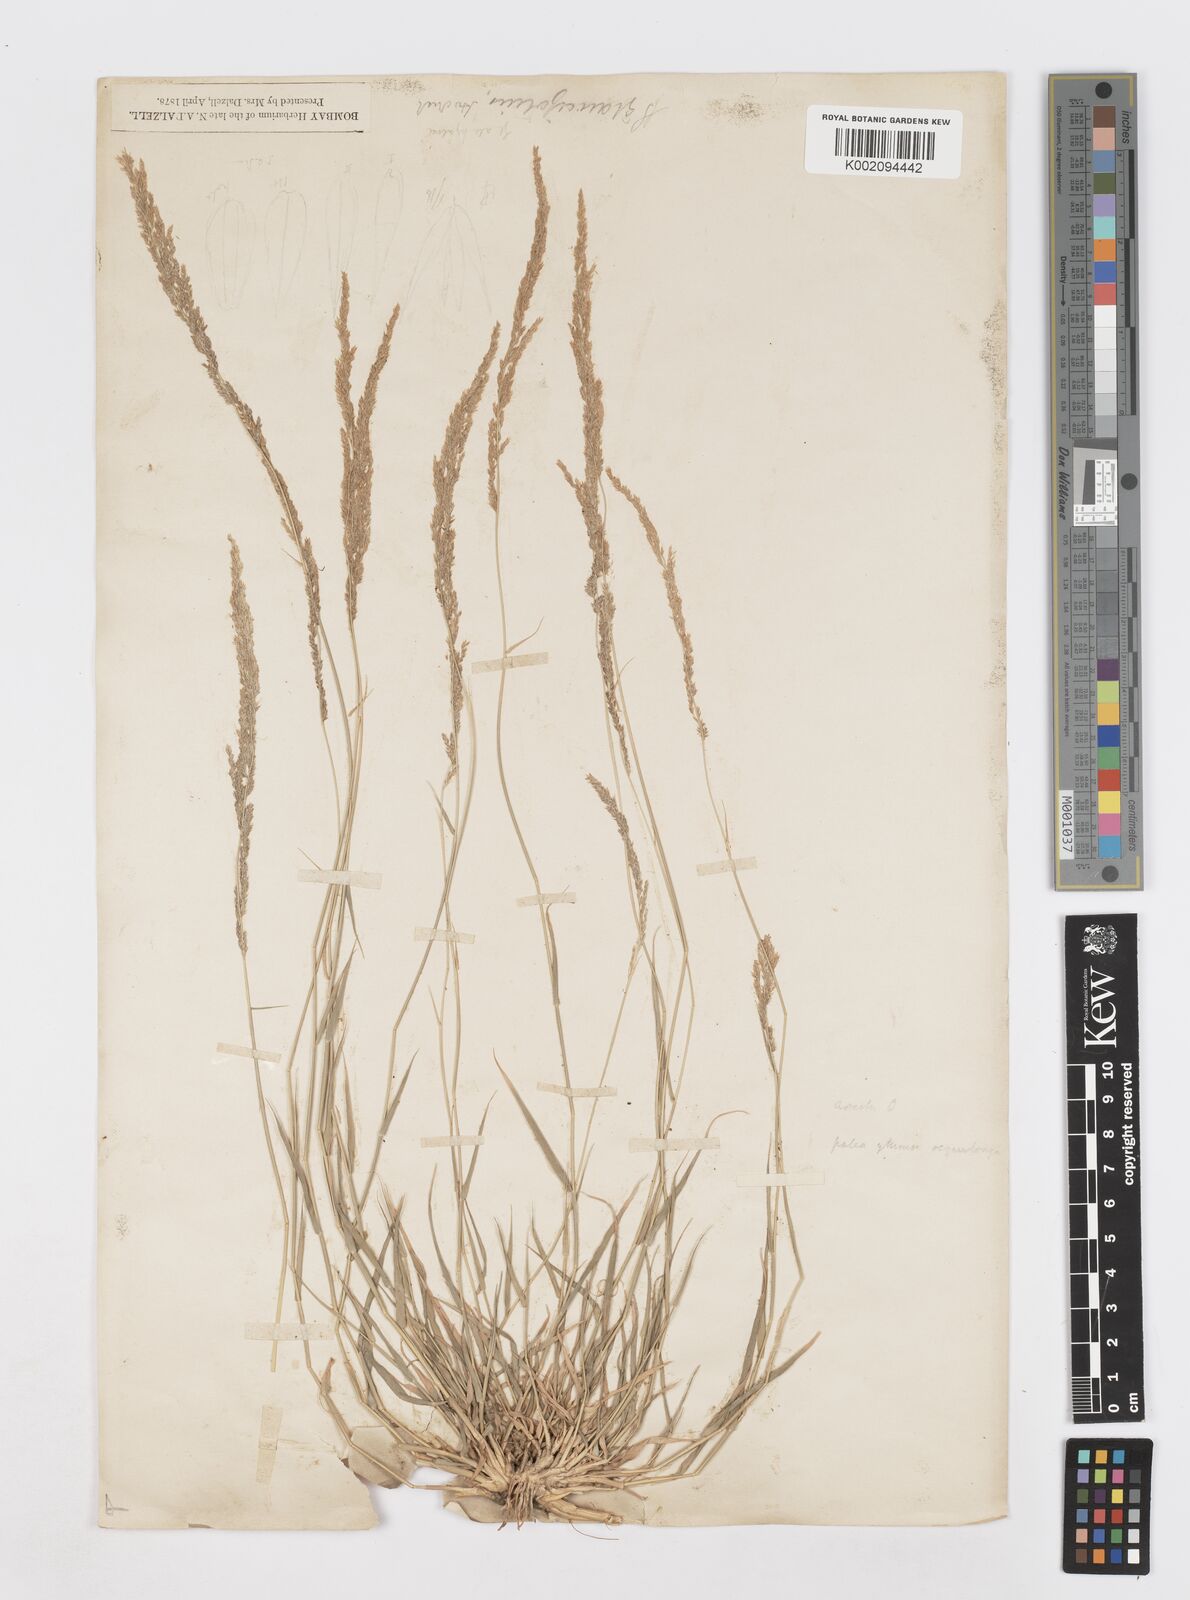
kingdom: Plantae
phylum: Tracheophyta
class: Liliopsida
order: Poales
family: Poaceae
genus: Sporobolus
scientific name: Sporobolus helvolus
